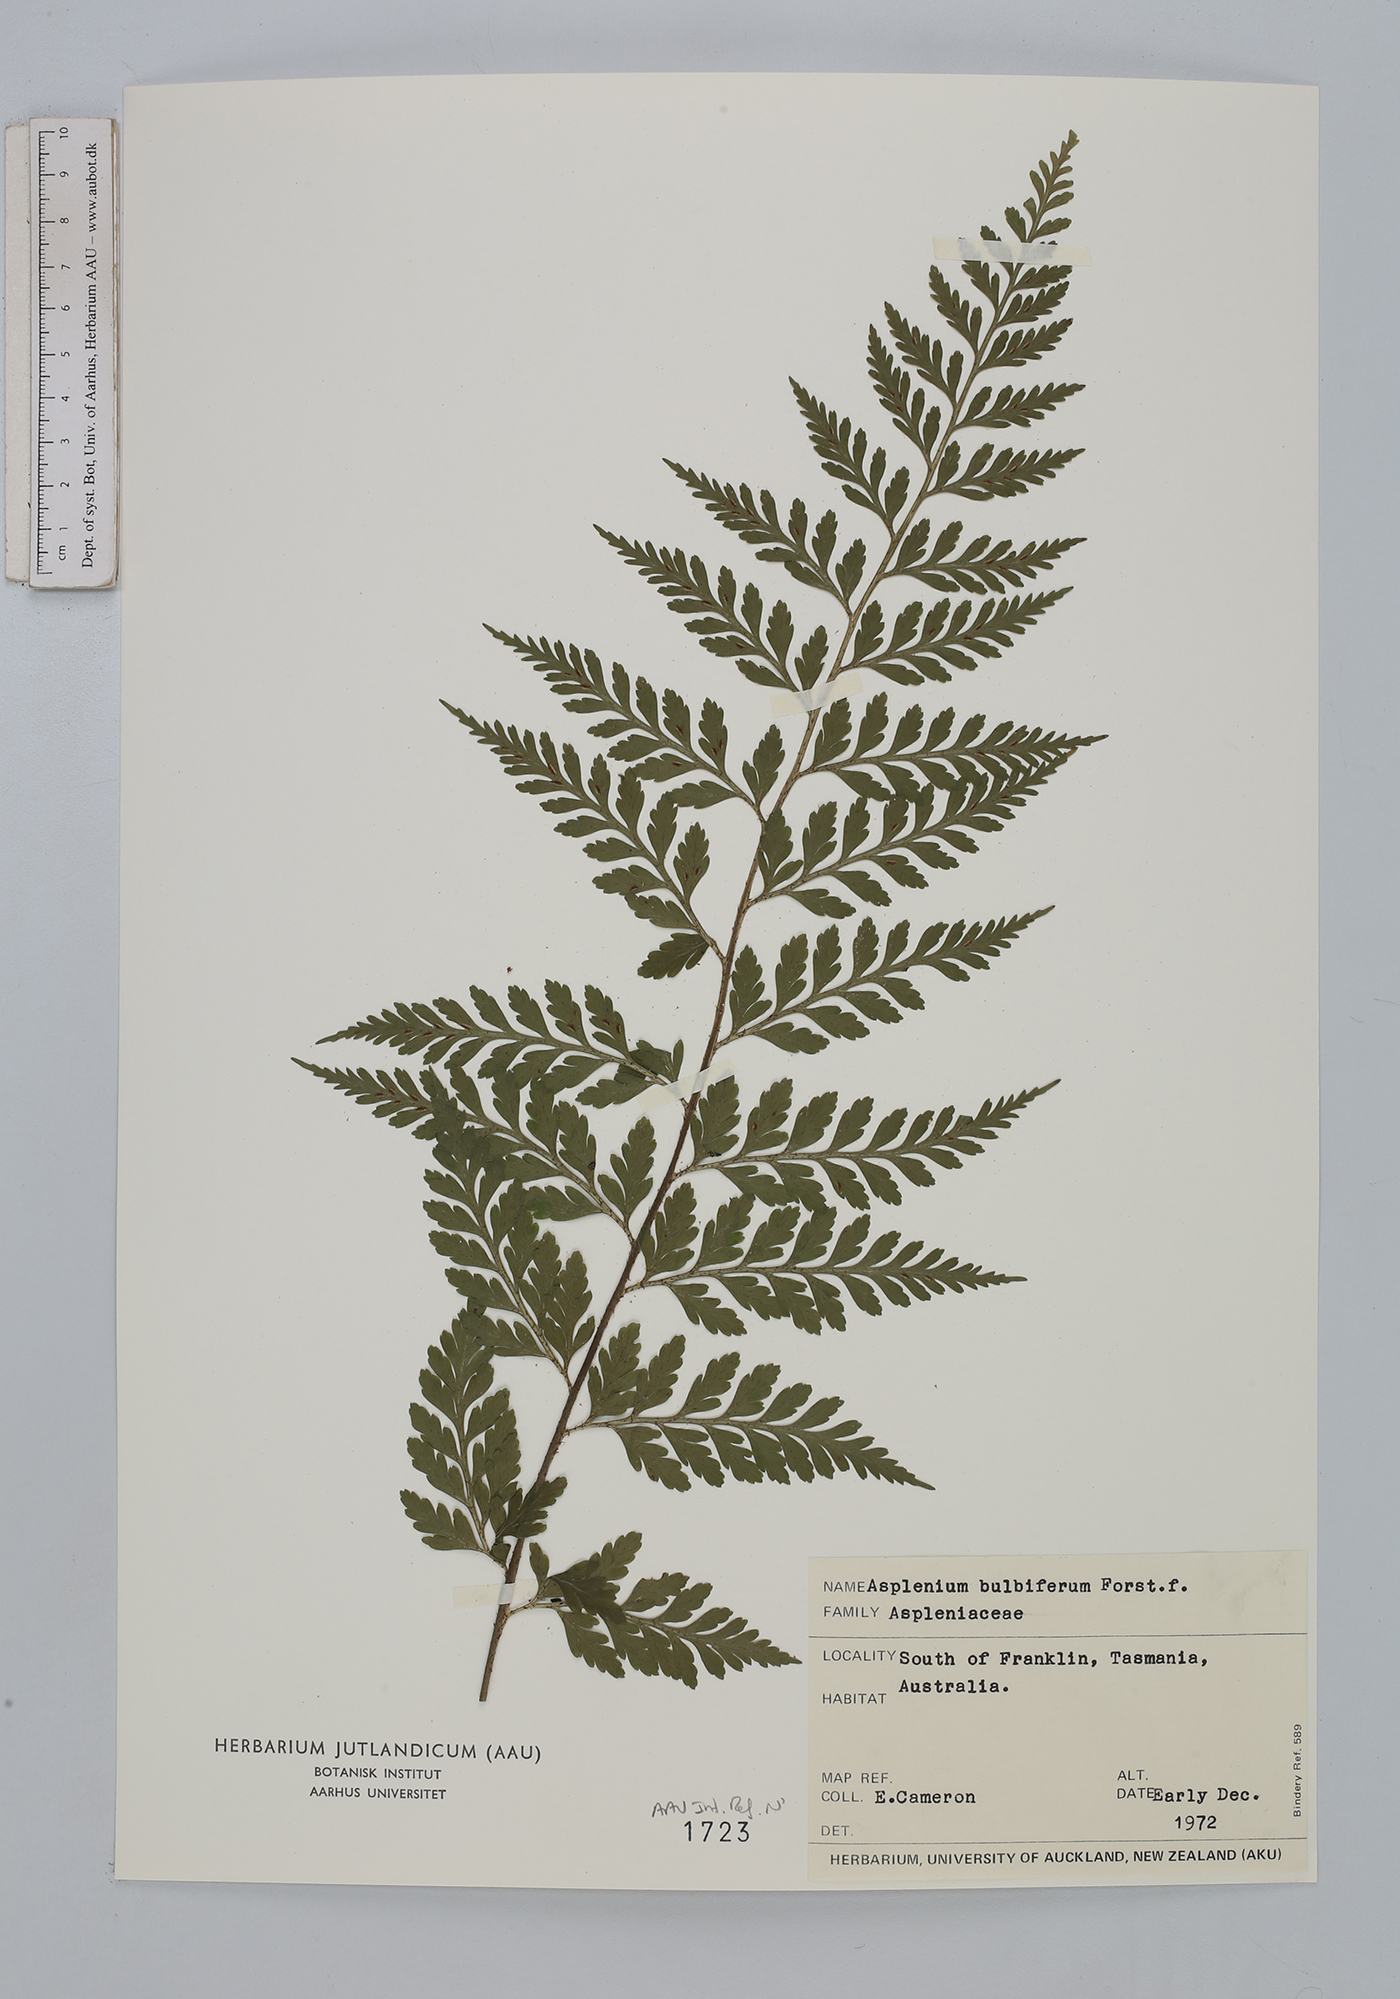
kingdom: Plantae
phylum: Tracheophyta
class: Polypodiopsida
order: Polypodiales
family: Aspleniaceae
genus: Asplenium
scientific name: Asplenium bulbiferum
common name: Mother fern
